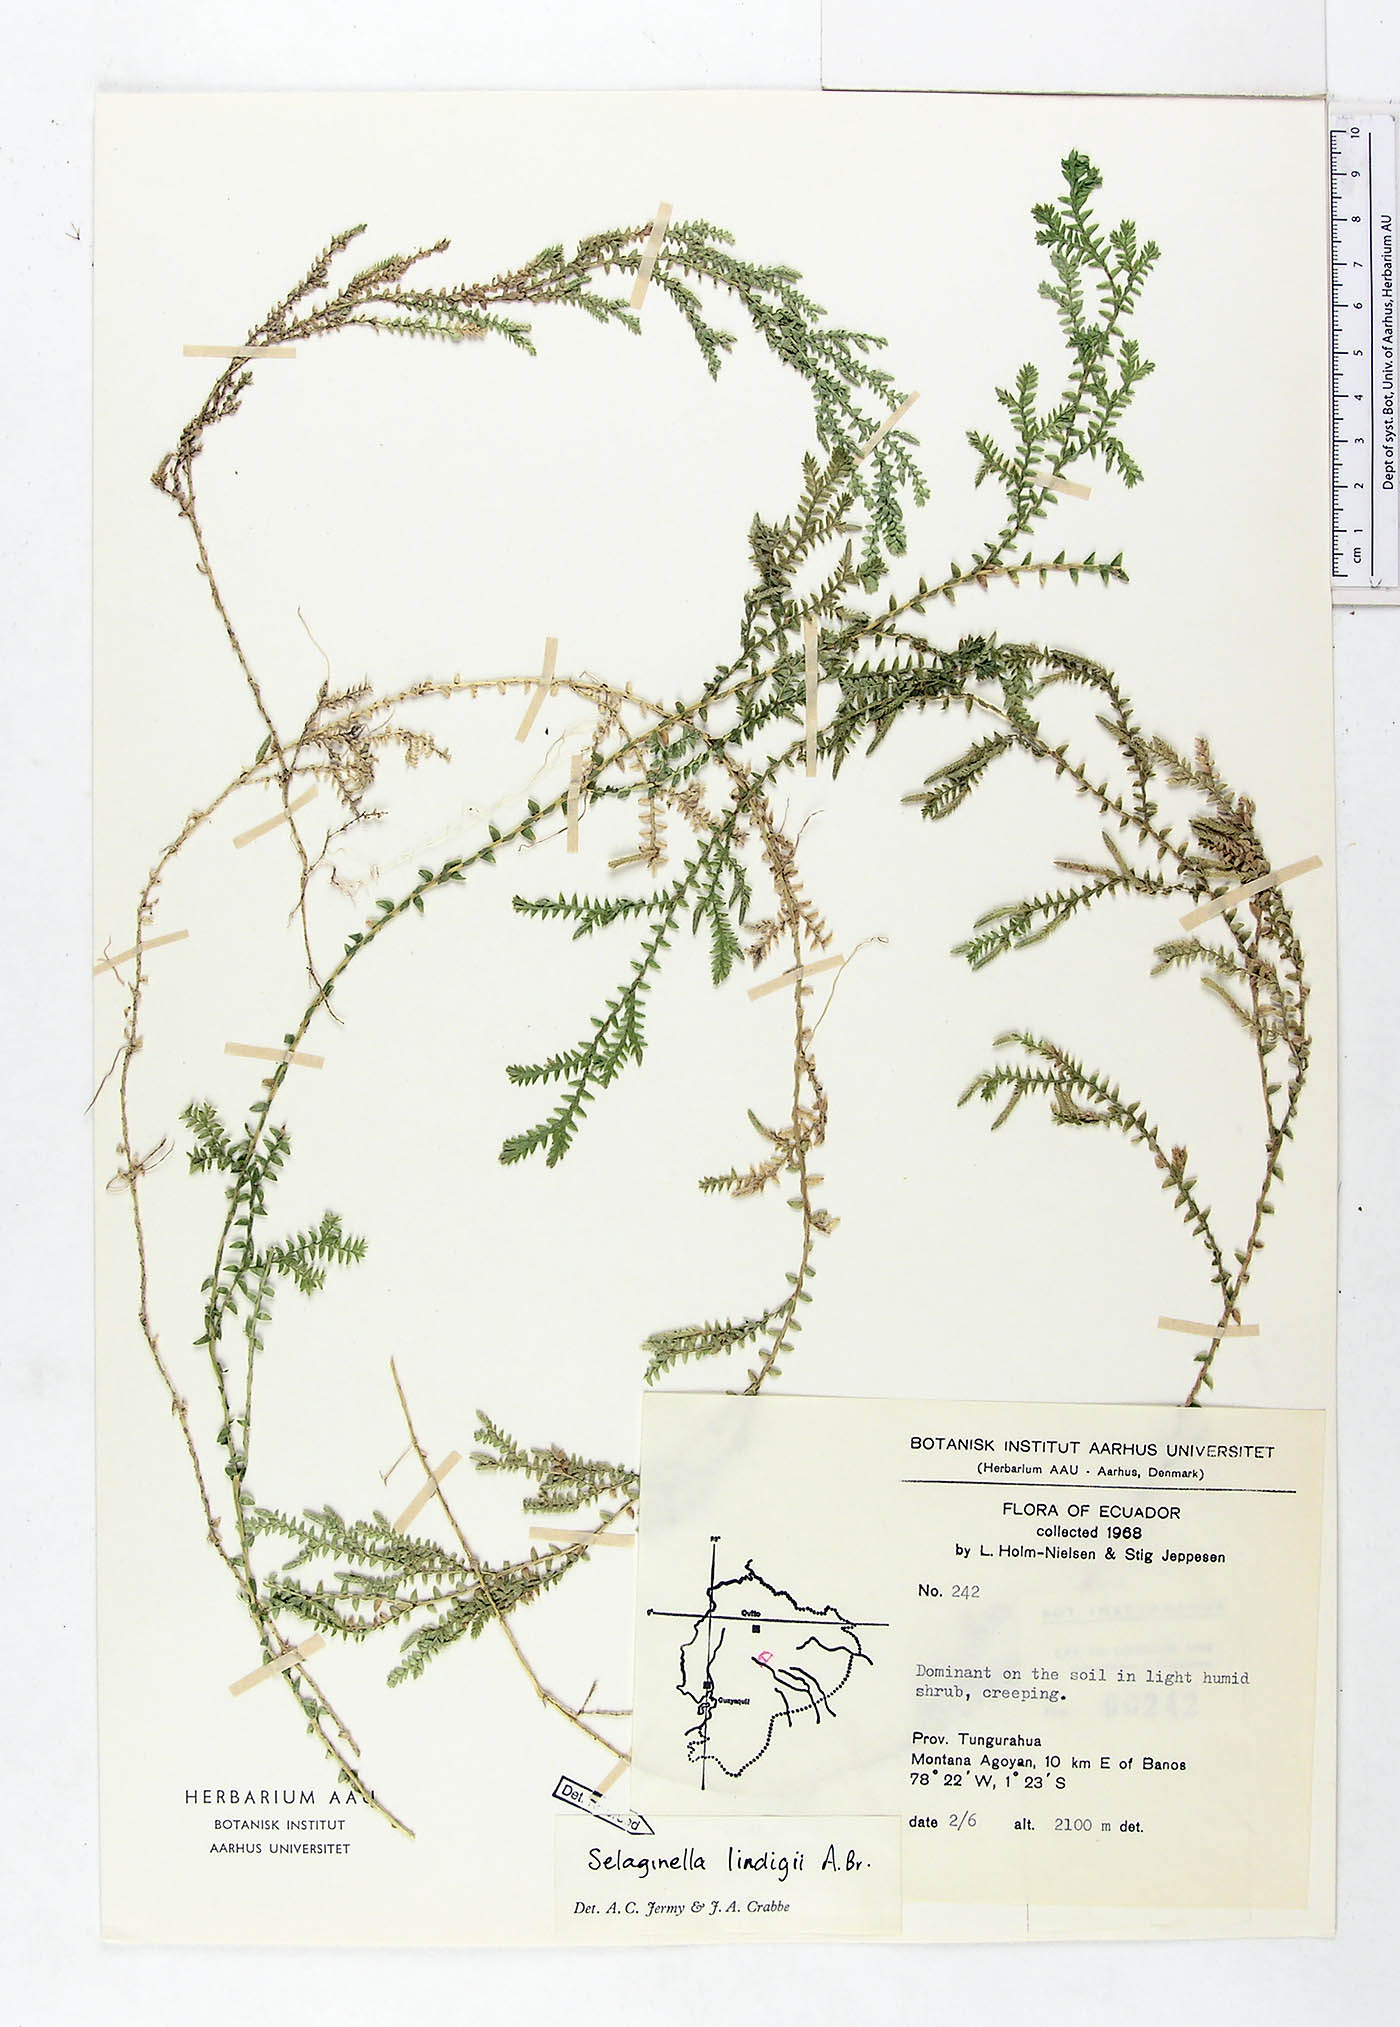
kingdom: Plantae
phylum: Tracheophyta
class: Lycopodiopsida
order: Selaginellales
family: Selaginellaceae
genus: Selaginella
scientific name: Selaginella lingulata
